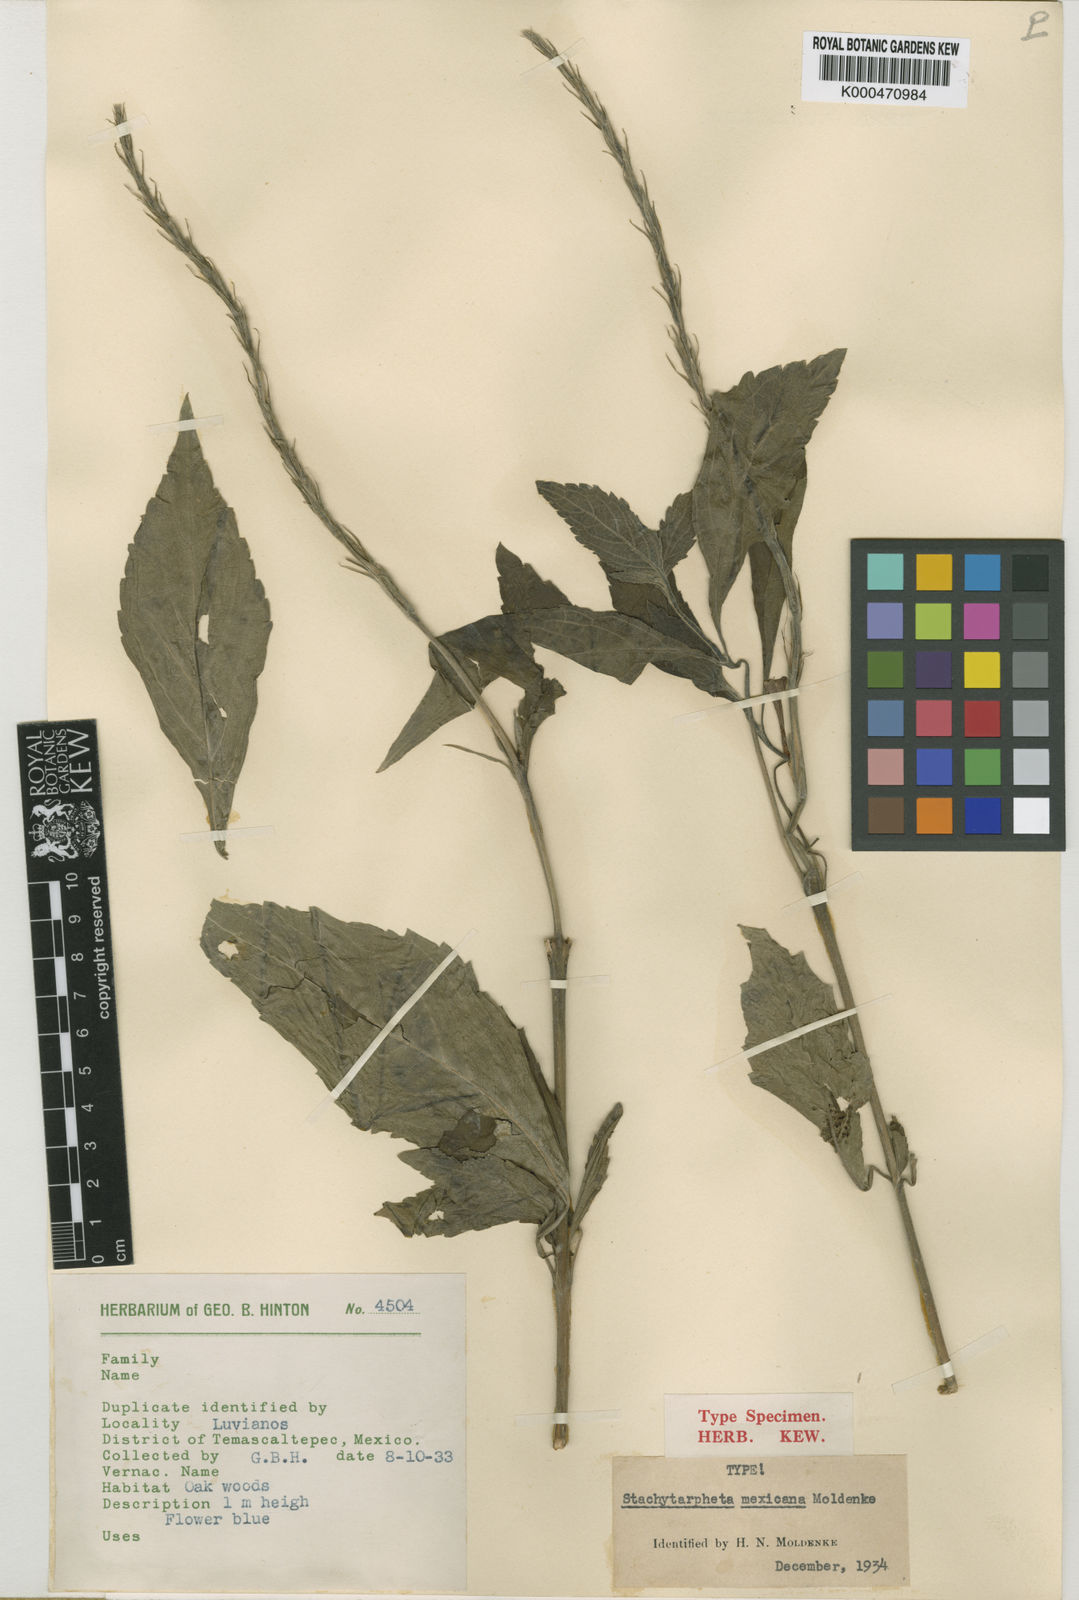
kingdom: Plantae
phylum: Tracheophyta
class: Magnoliopsida
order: Lamiales
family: Verbenaceae
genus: Stachytarpheta
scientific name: Stachytarpheta longiflora
